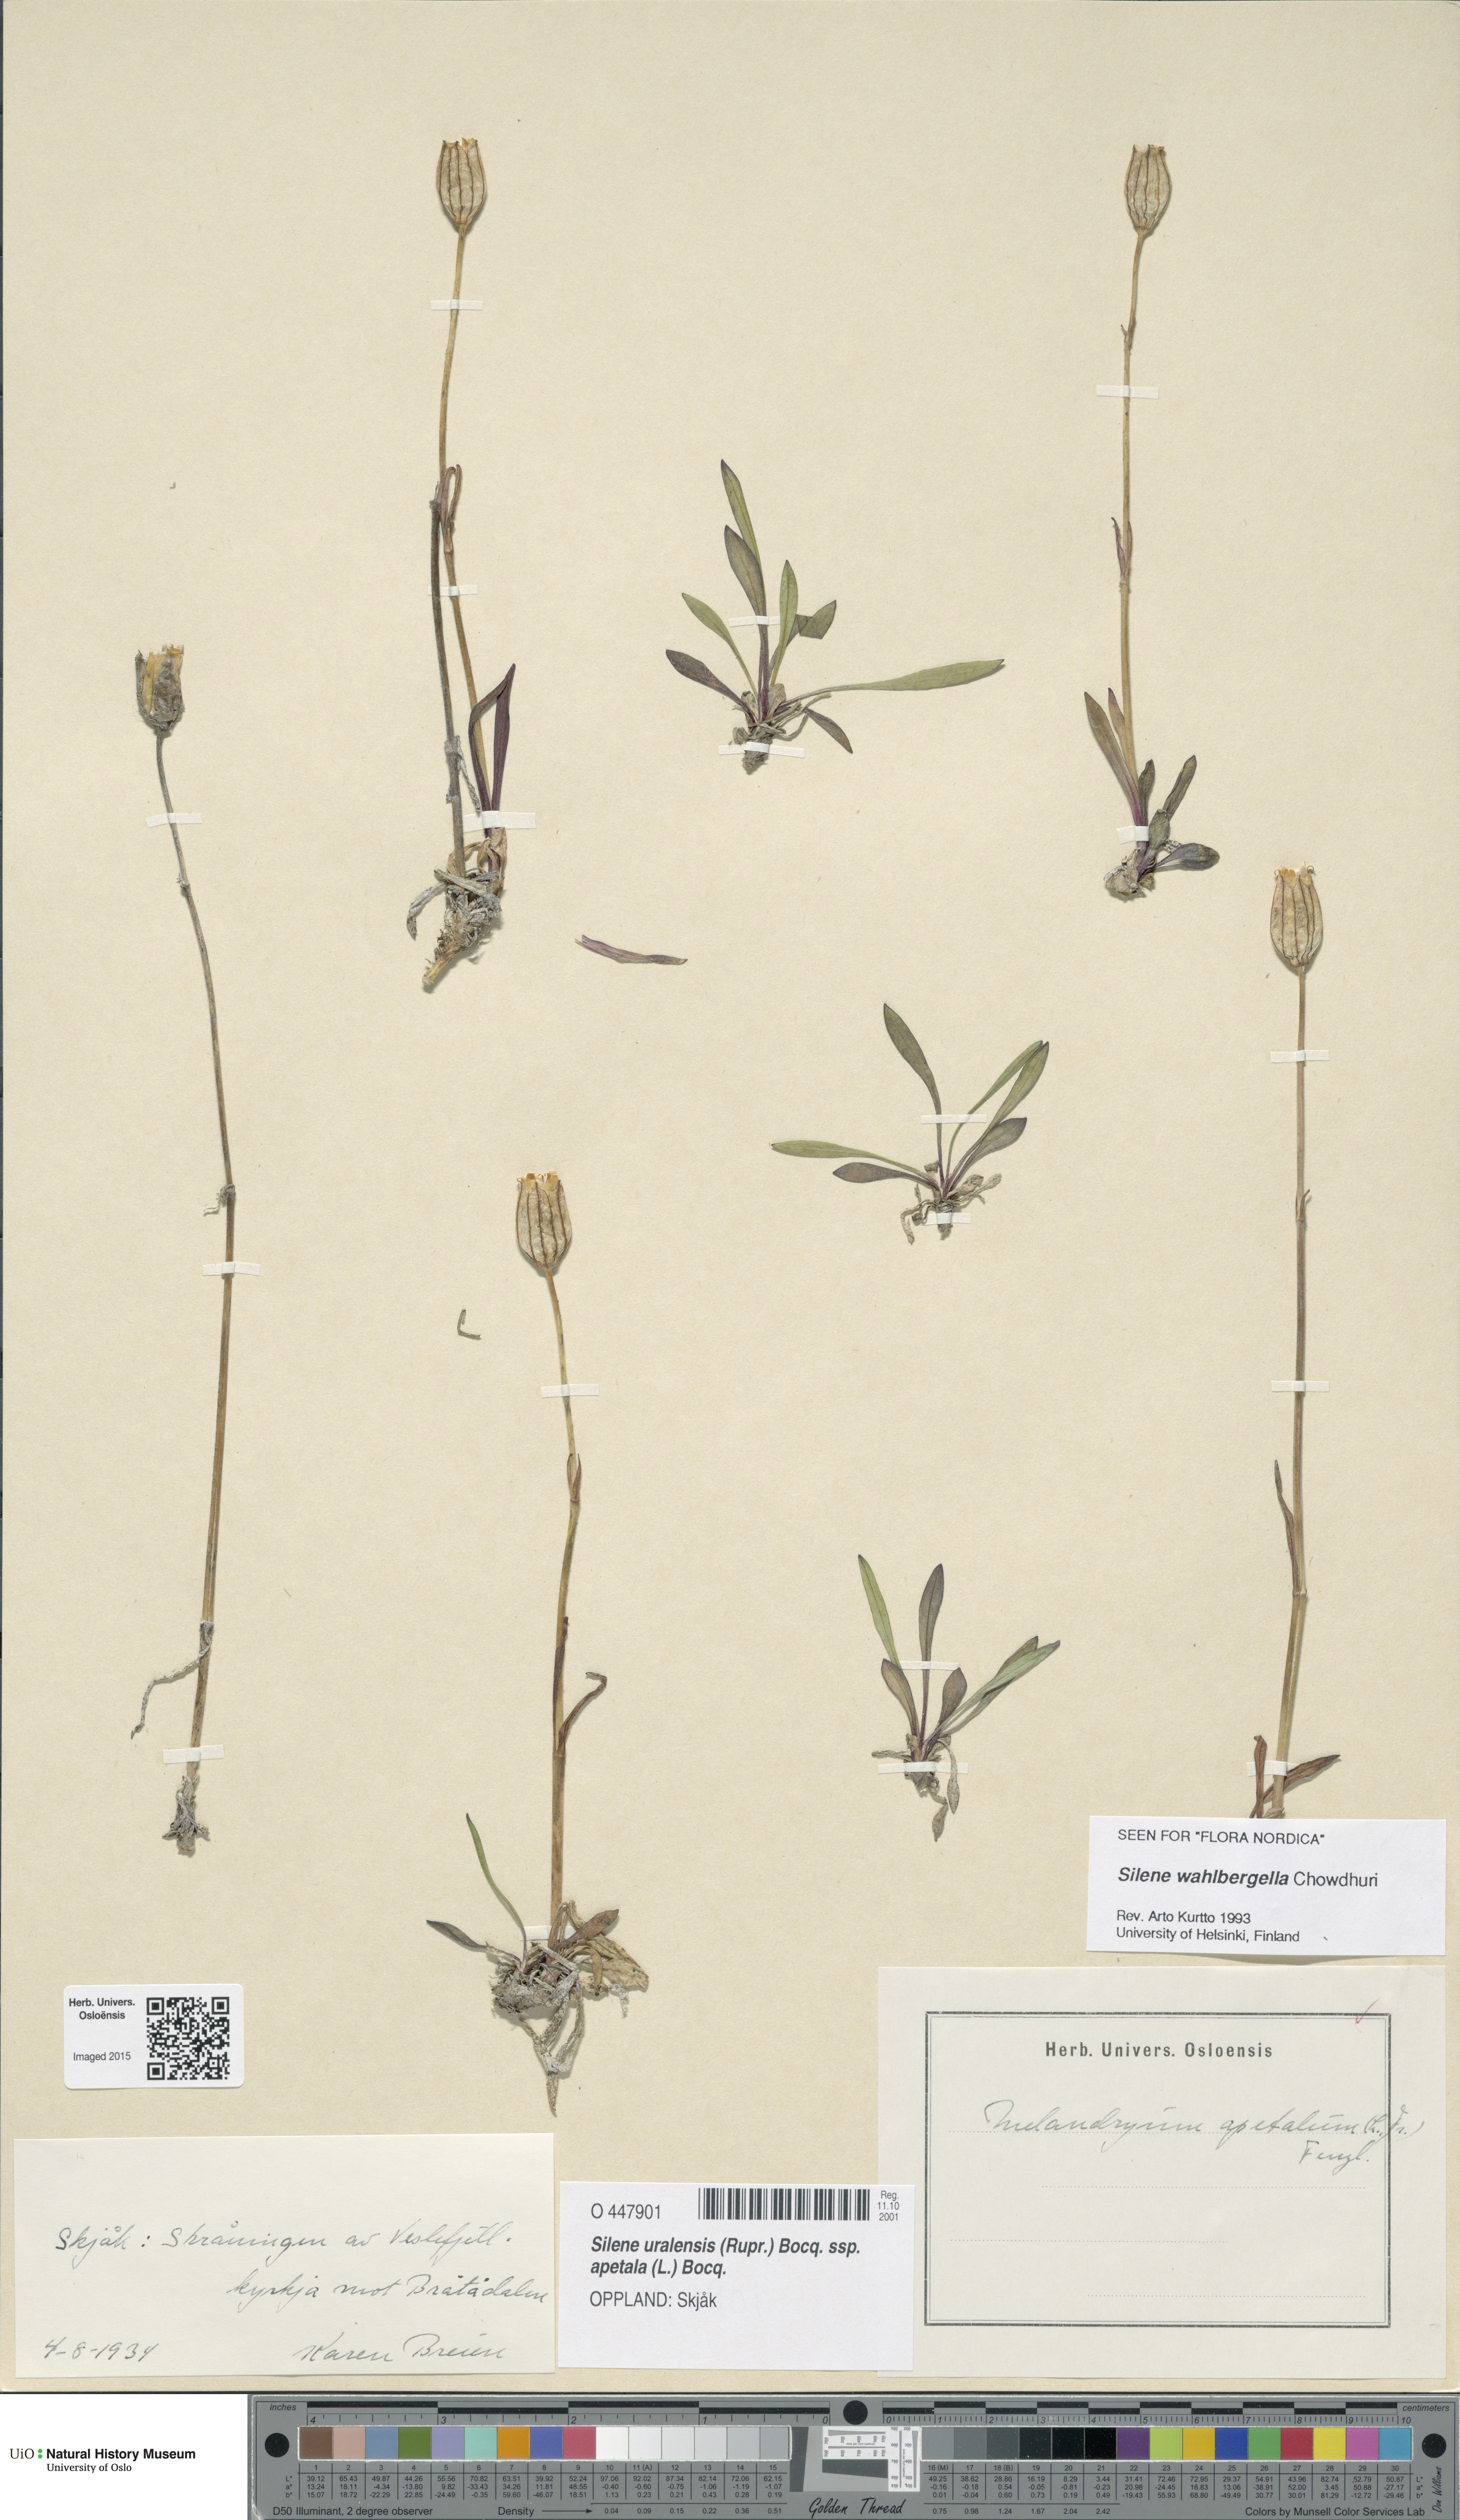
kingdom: Plantae
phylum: Tracheophyta
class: Magnoliopsida
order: Caryophyllales
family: Caryophyllaceae
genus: Silene
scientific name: Silene wahlbergella
